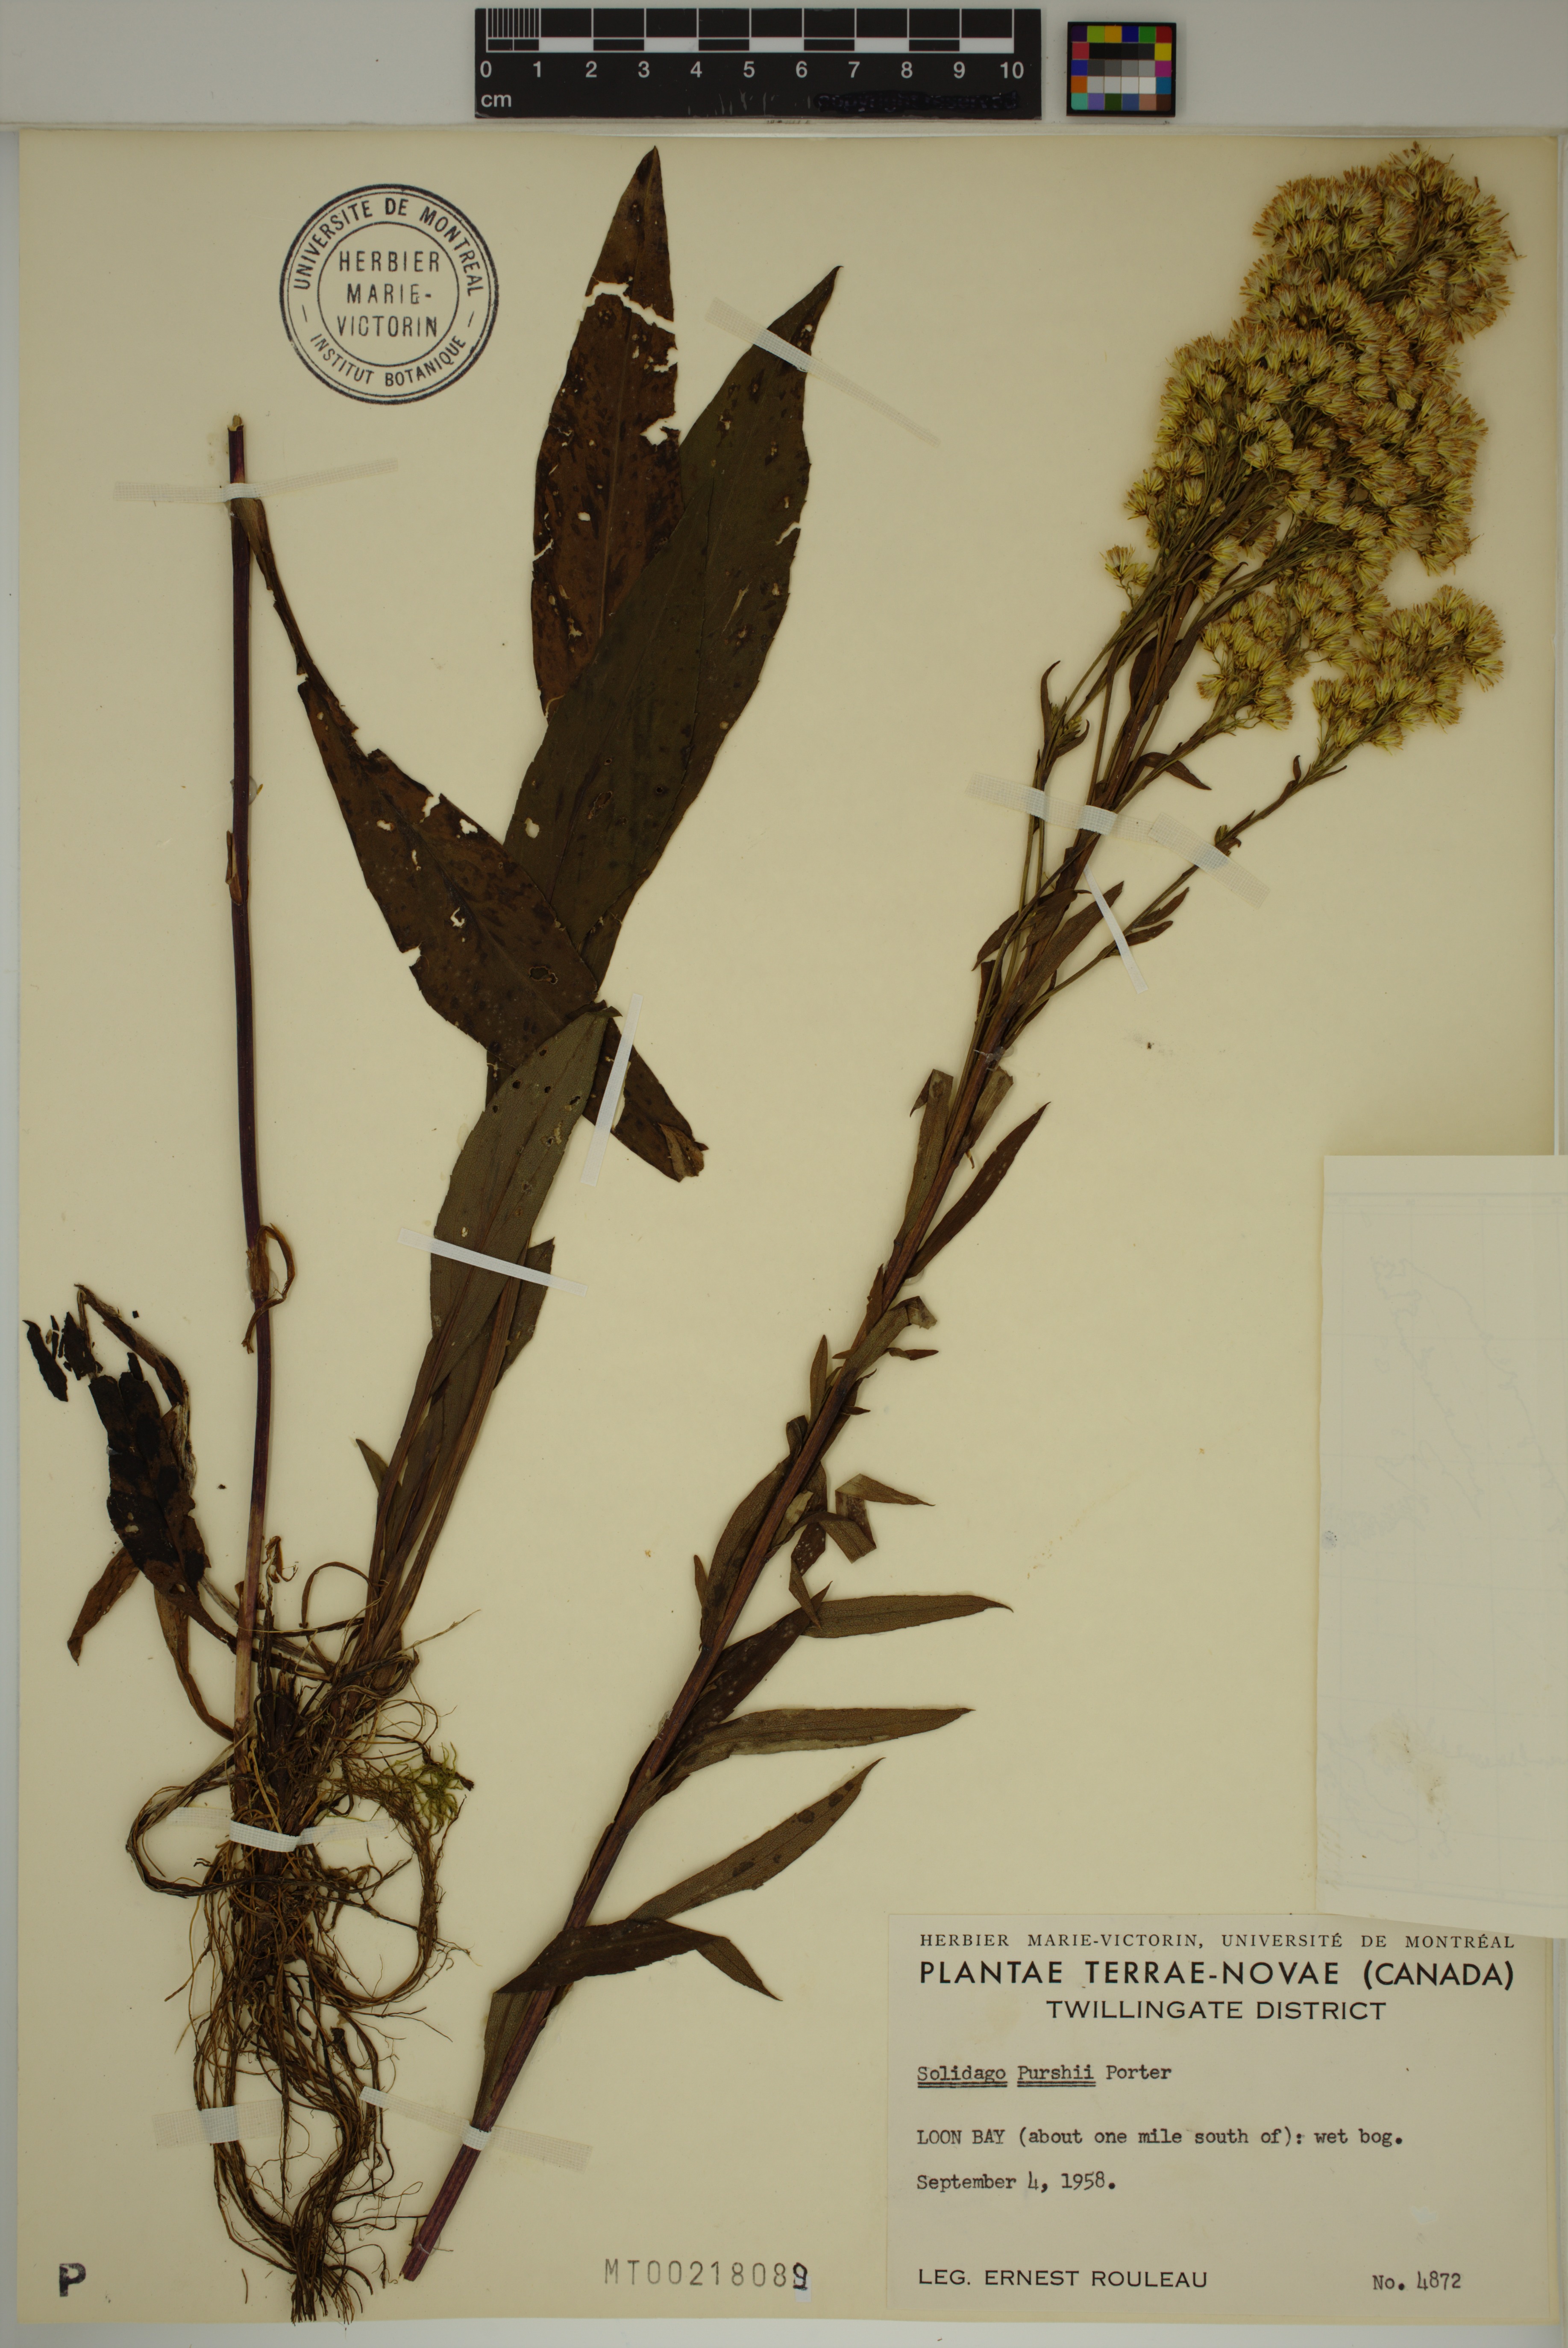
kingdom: Plantae
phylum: Tracheophyta
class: Magnoliopsida
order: Asterales
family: Asteraceae
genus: Solidago
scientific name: Solidago uliginosa
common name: Bog goldenrod
